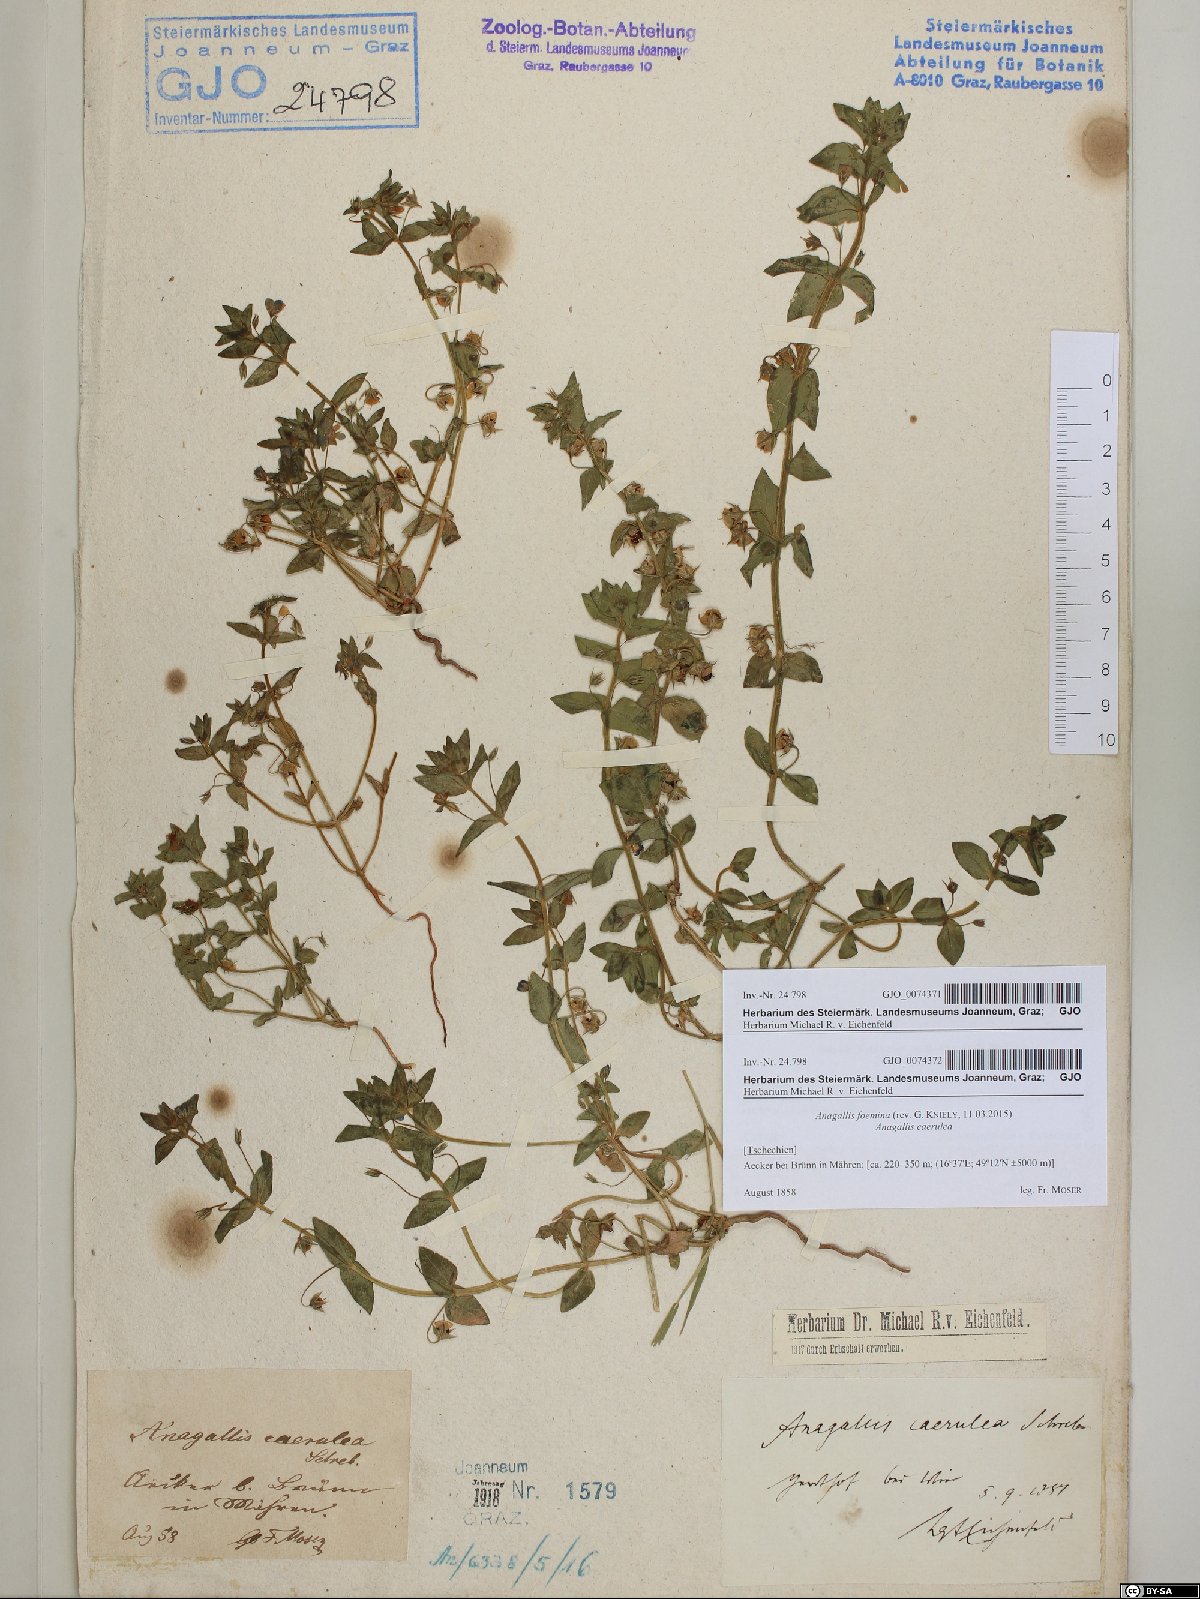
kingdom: Plantae
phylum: Tracheophyta
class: Magnoliopsida
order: Ericales
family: Primulaceae
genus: Lysimachia
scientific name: Lysimachia foemina
